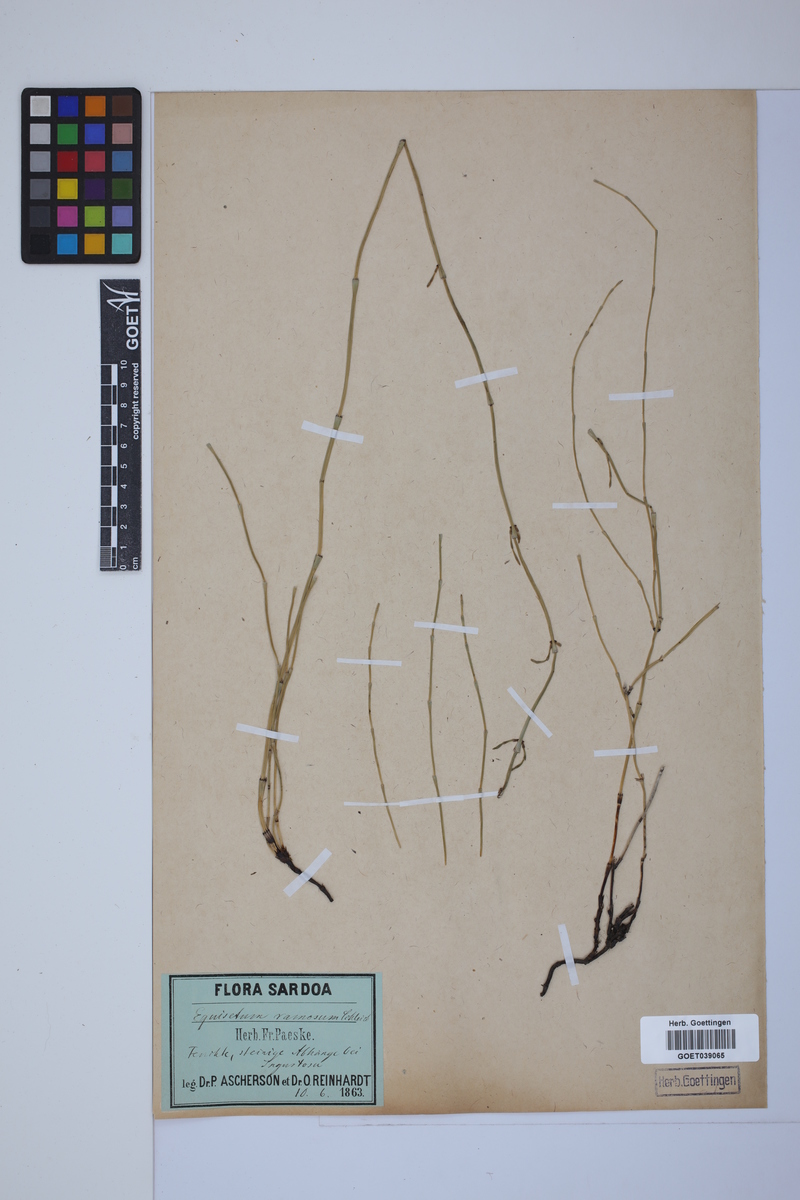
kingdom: Plantae
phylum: Tracheophyta
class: Polypodiopsida
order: Equisetales
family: Equisetaceae
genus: Equisetum
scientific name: Equisetum giganteum
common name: Giant horsetail
